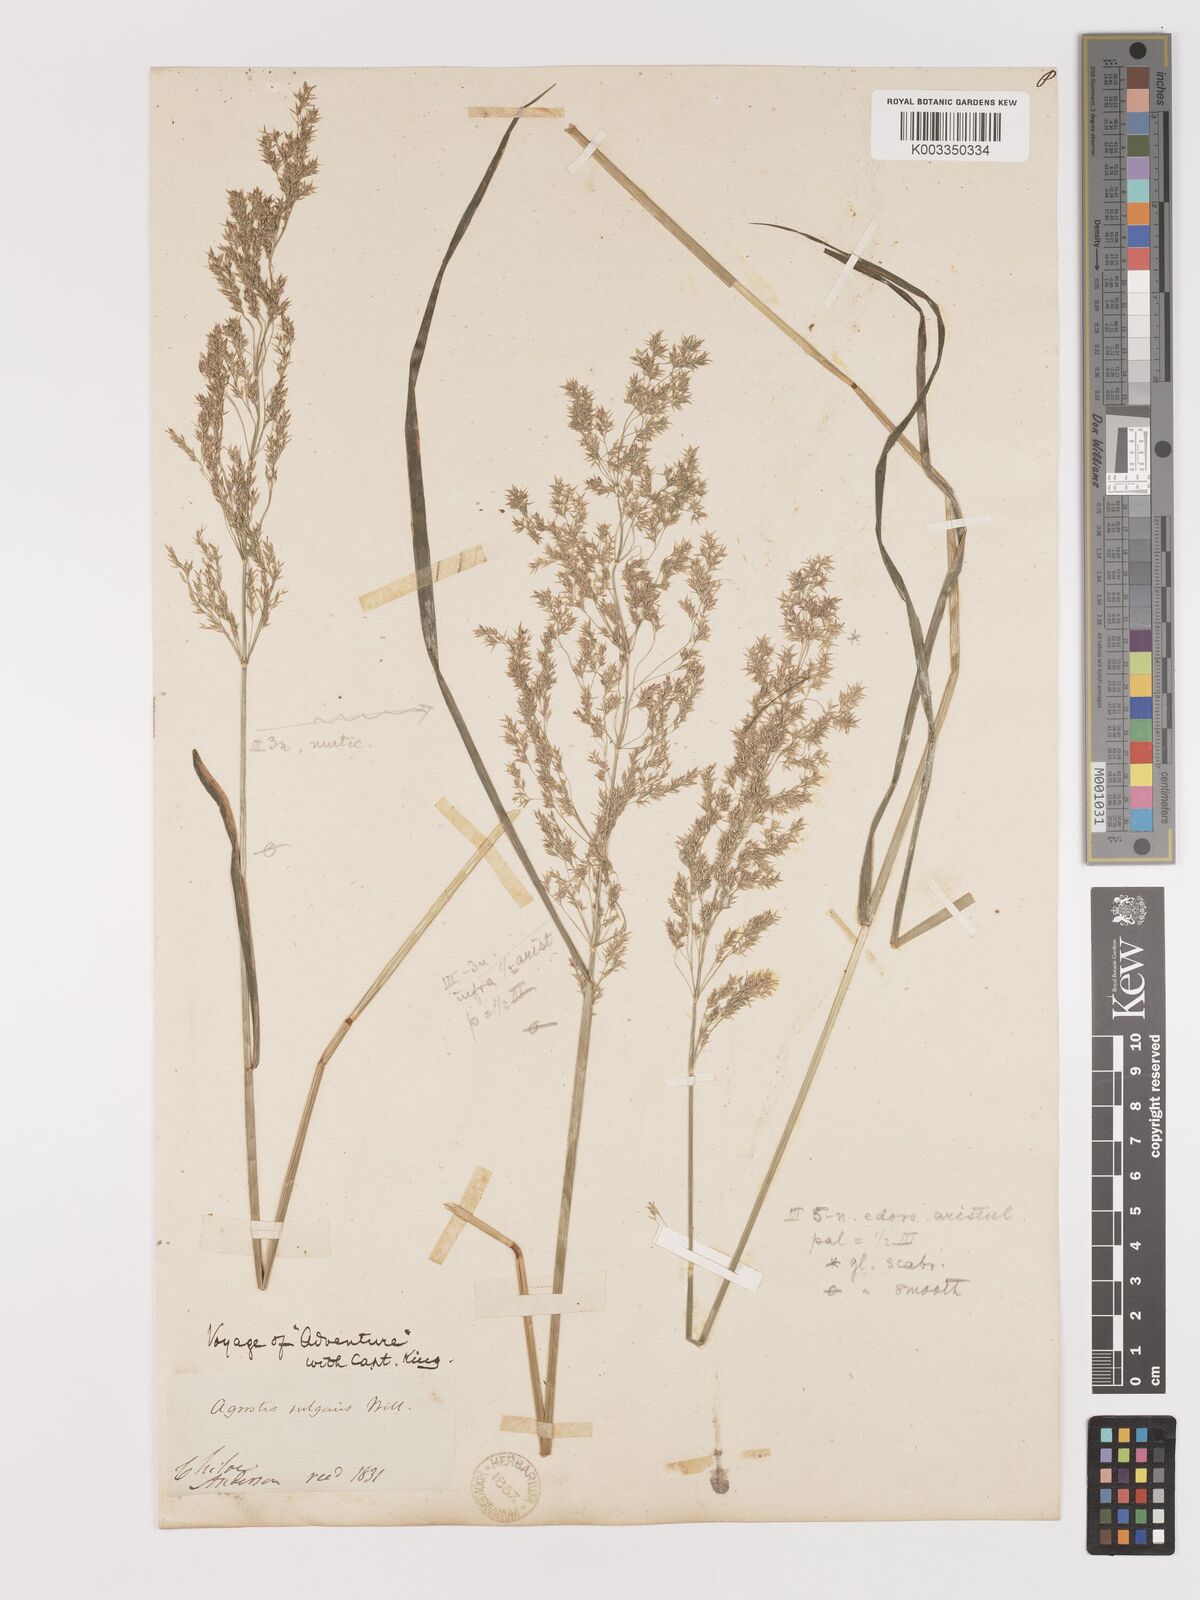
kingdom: Plantae
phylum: Tracheophyta
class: Liliopsida
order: Poales
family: Poaceae
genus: Agrostis
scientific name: Agrostis
